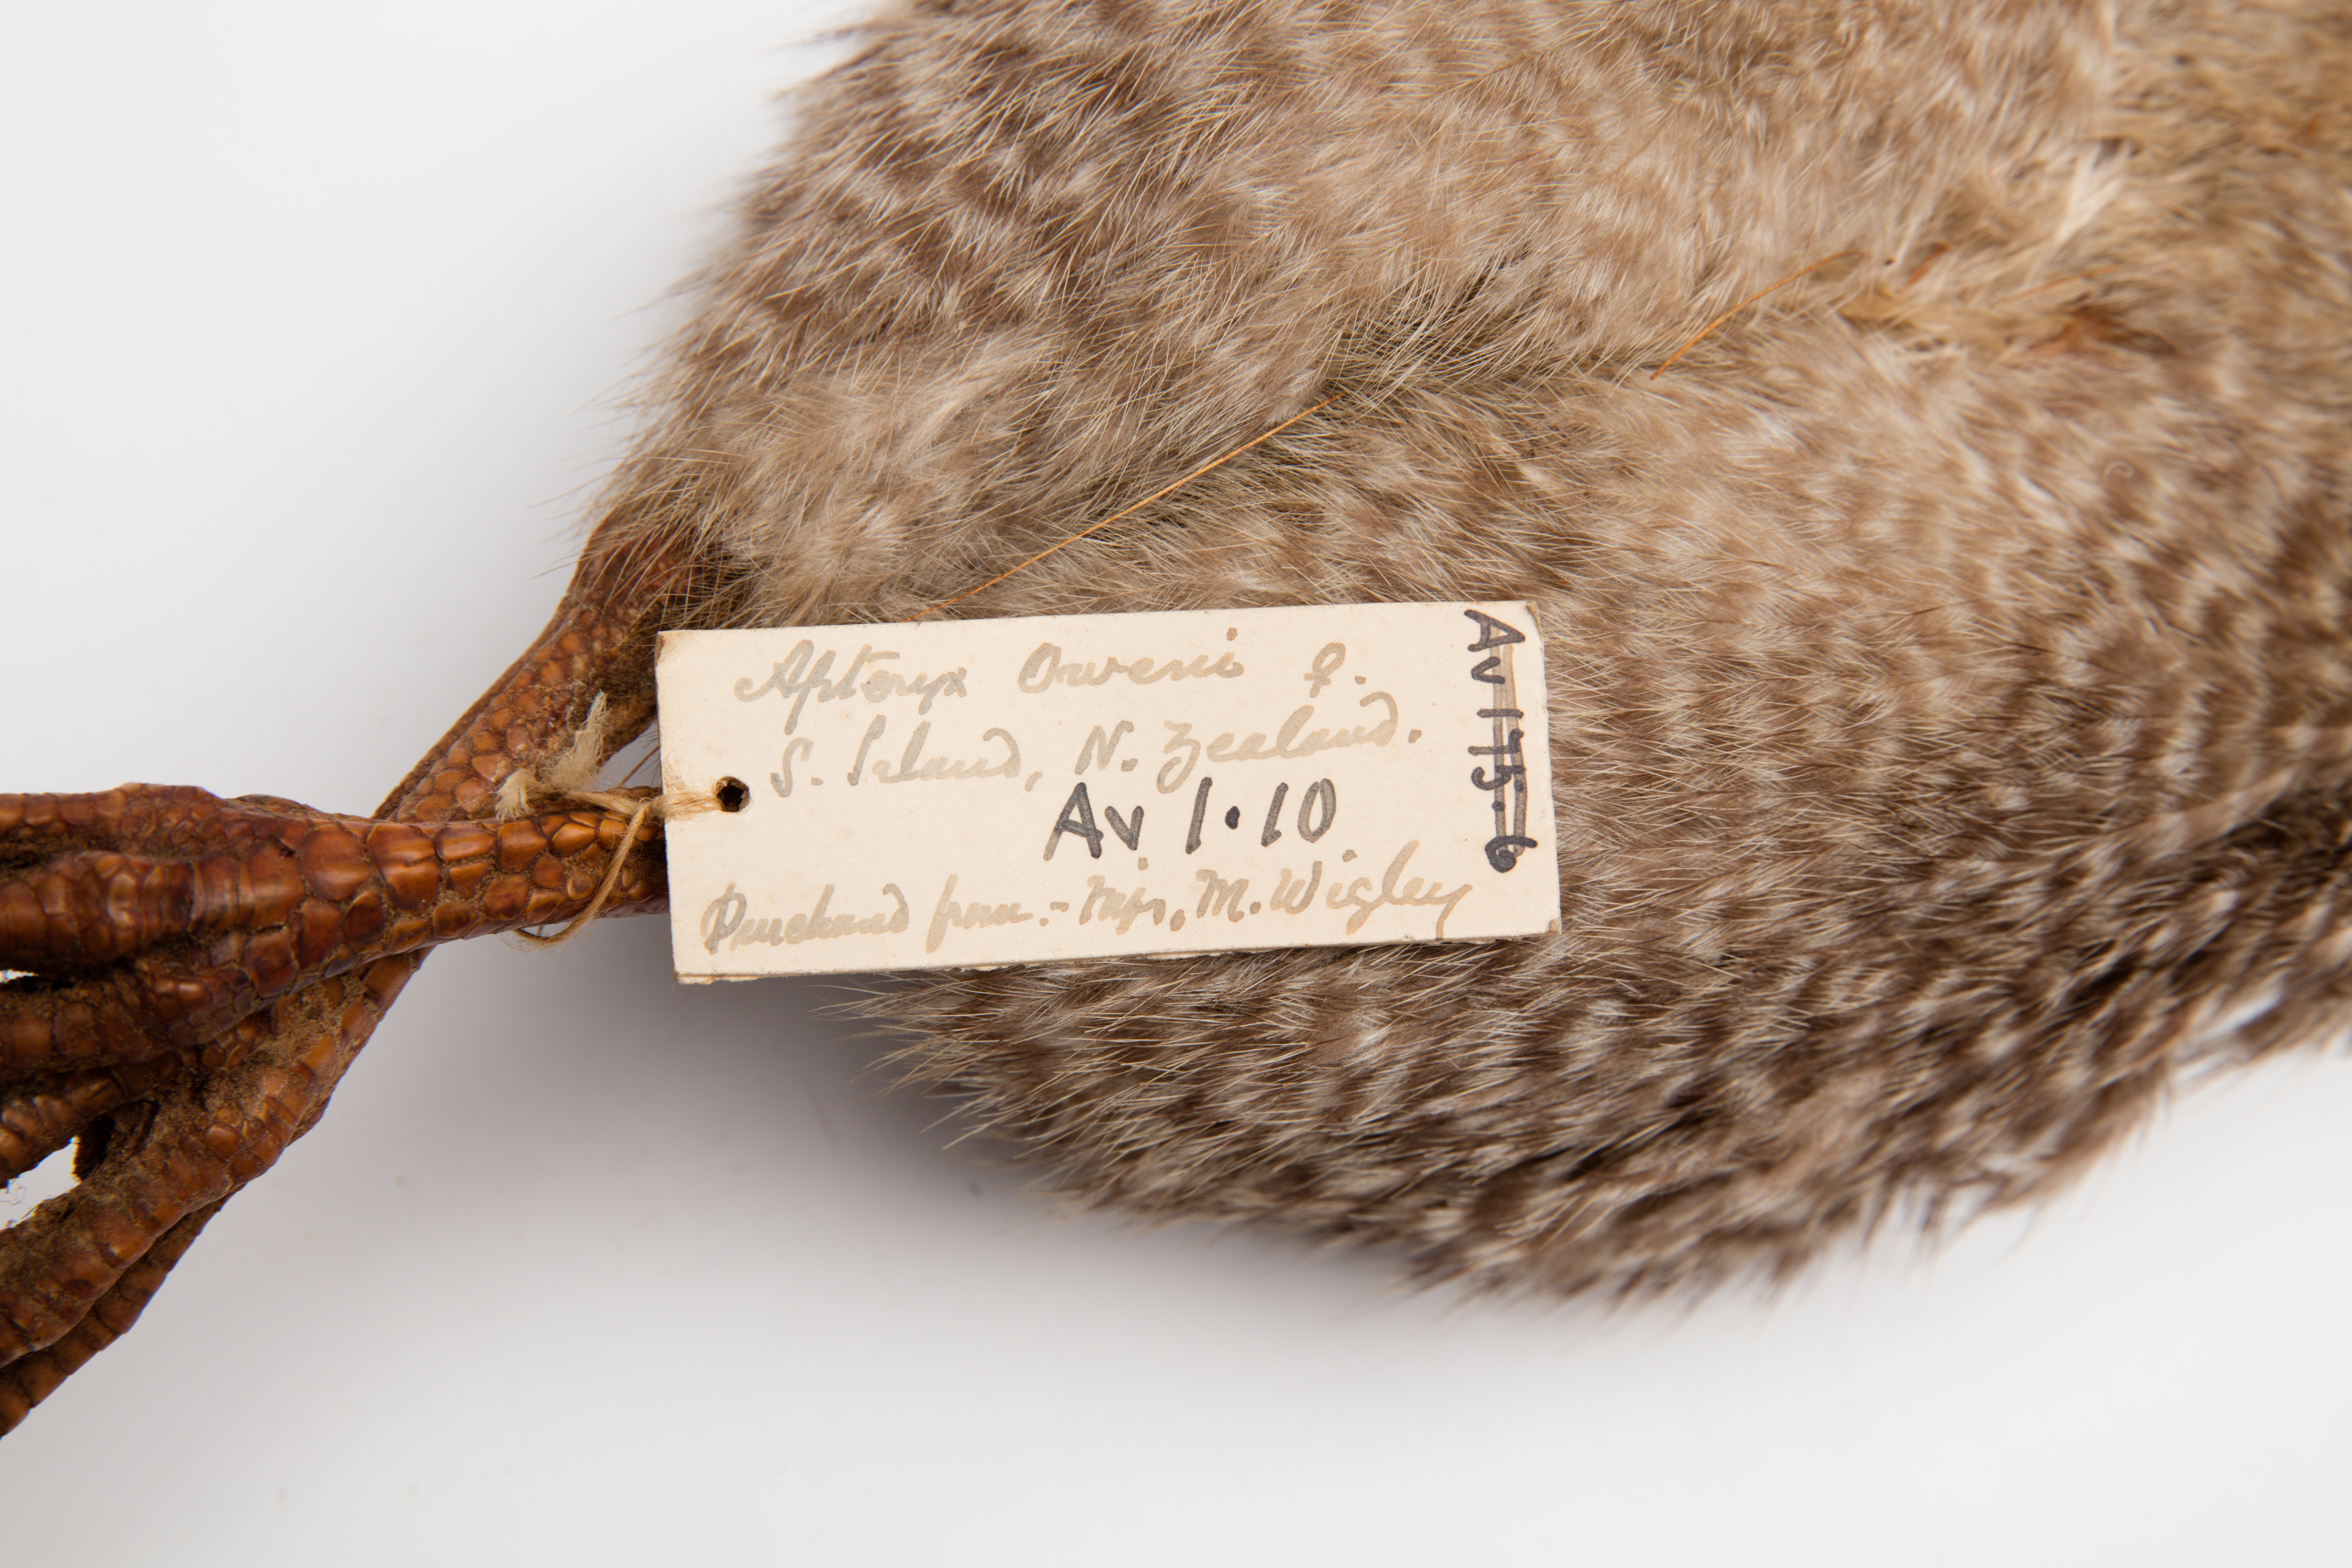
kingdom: Animalia
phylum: Chordata
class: Aves
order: Apterygiformes
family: Apterygidae
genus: Apteryx
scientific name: Apteryx owenii
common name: Little spotted kiwi
